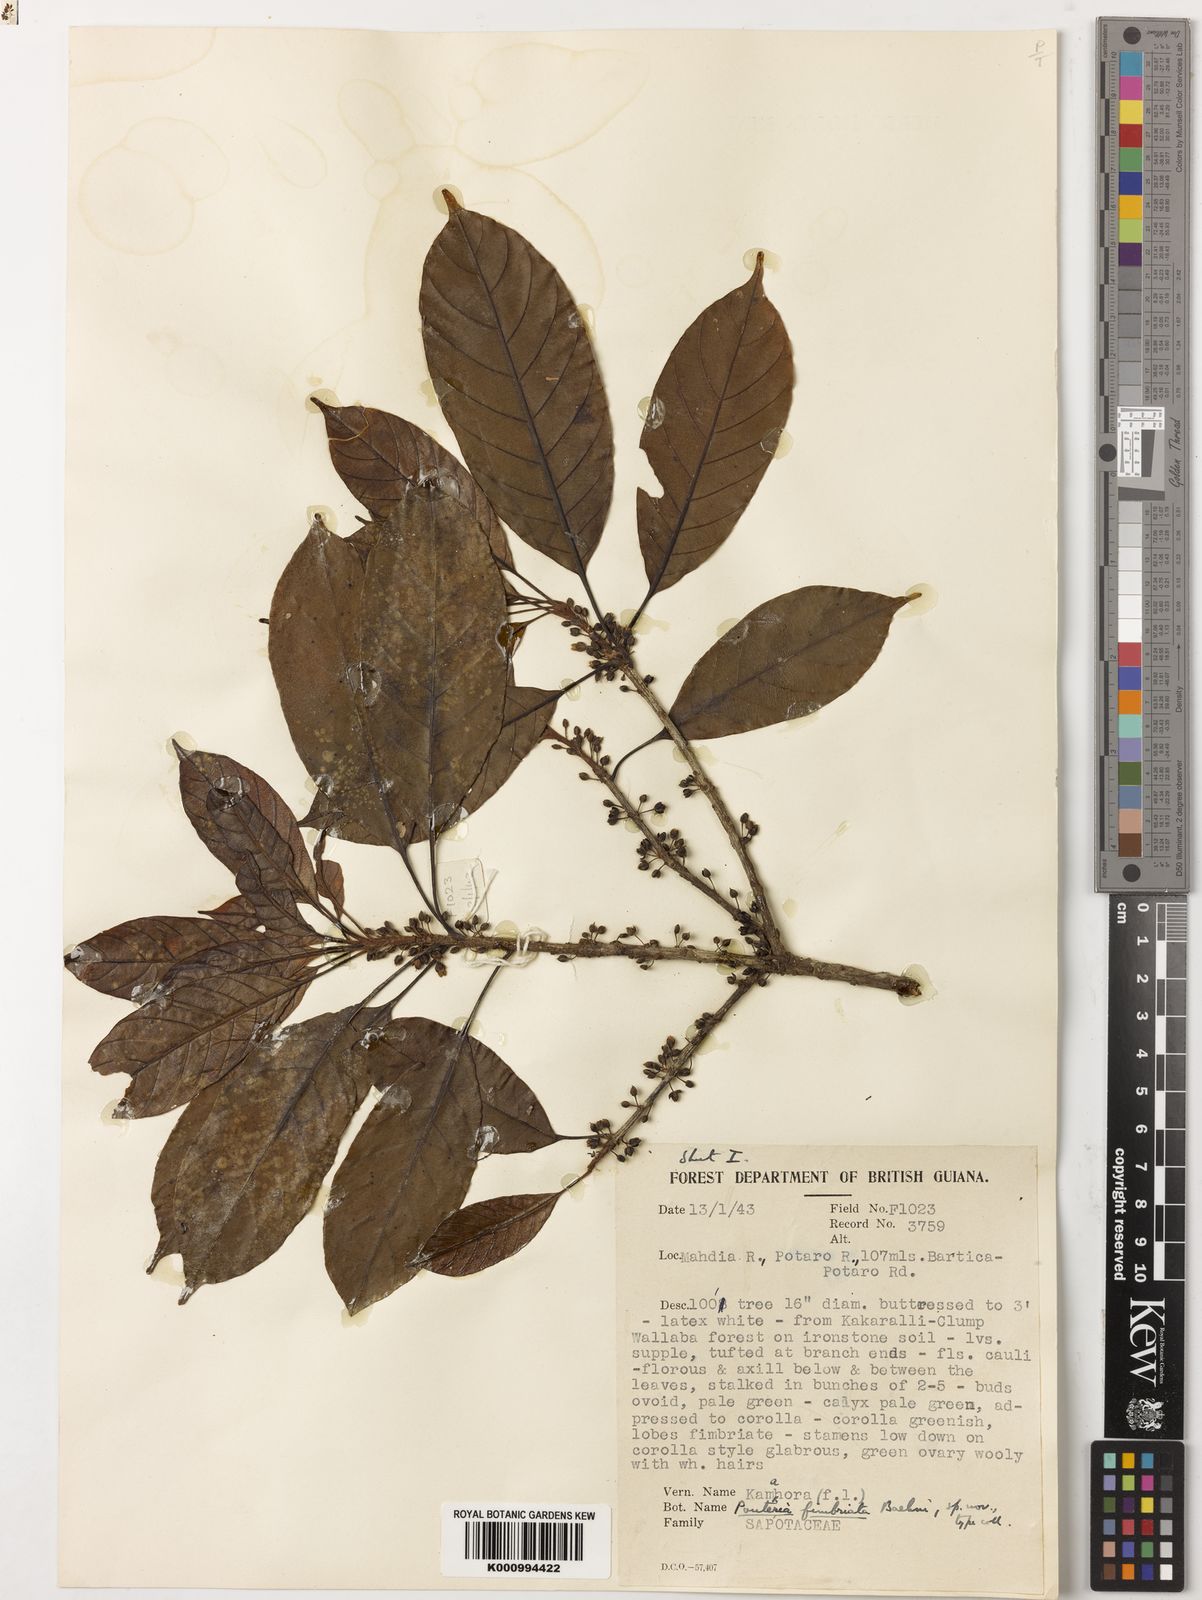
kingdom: Plantae
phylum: Tracheophyta
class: Magnoliopsida
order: Ericales
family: Sapotaceae
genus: Pouteria
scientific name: Pouteria fimbriata
